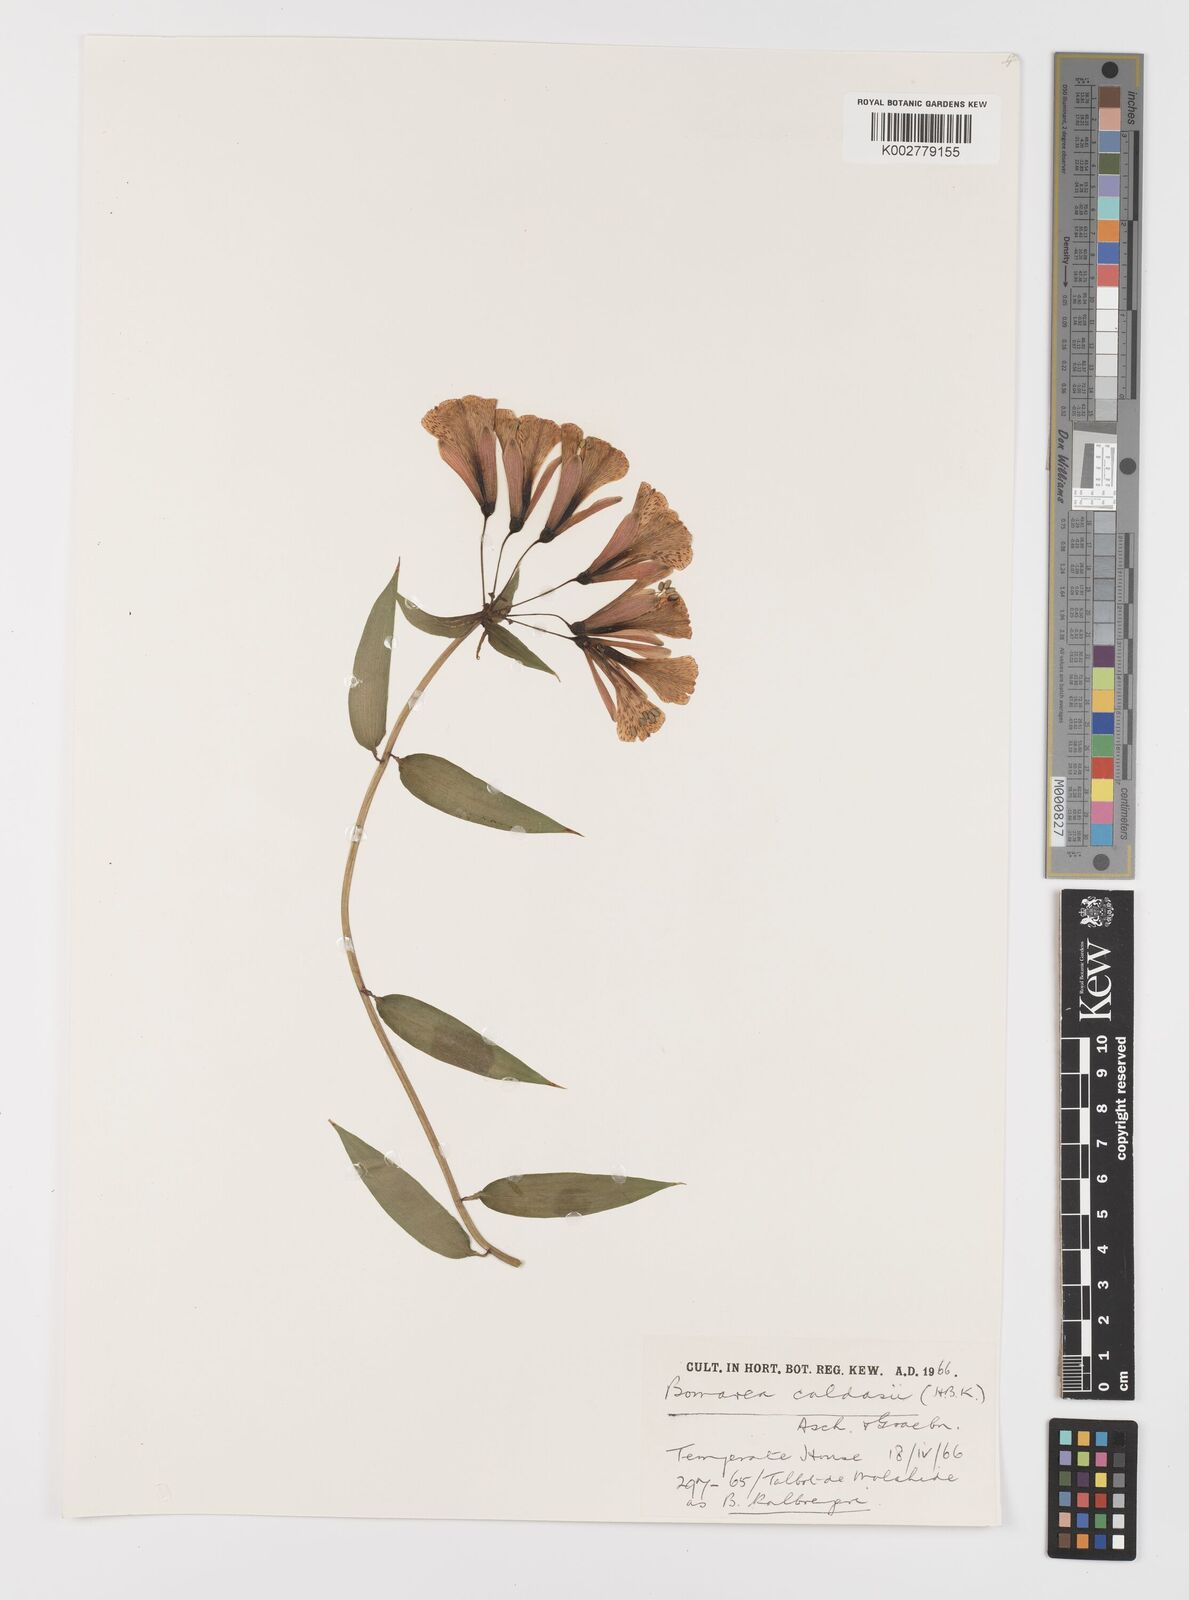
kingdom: Plantae
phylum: Tracheophyta
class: Liliopsida
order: Liliales
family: Alstroemeriaceae
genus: Bomarea
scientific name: Bomarea multiflora
